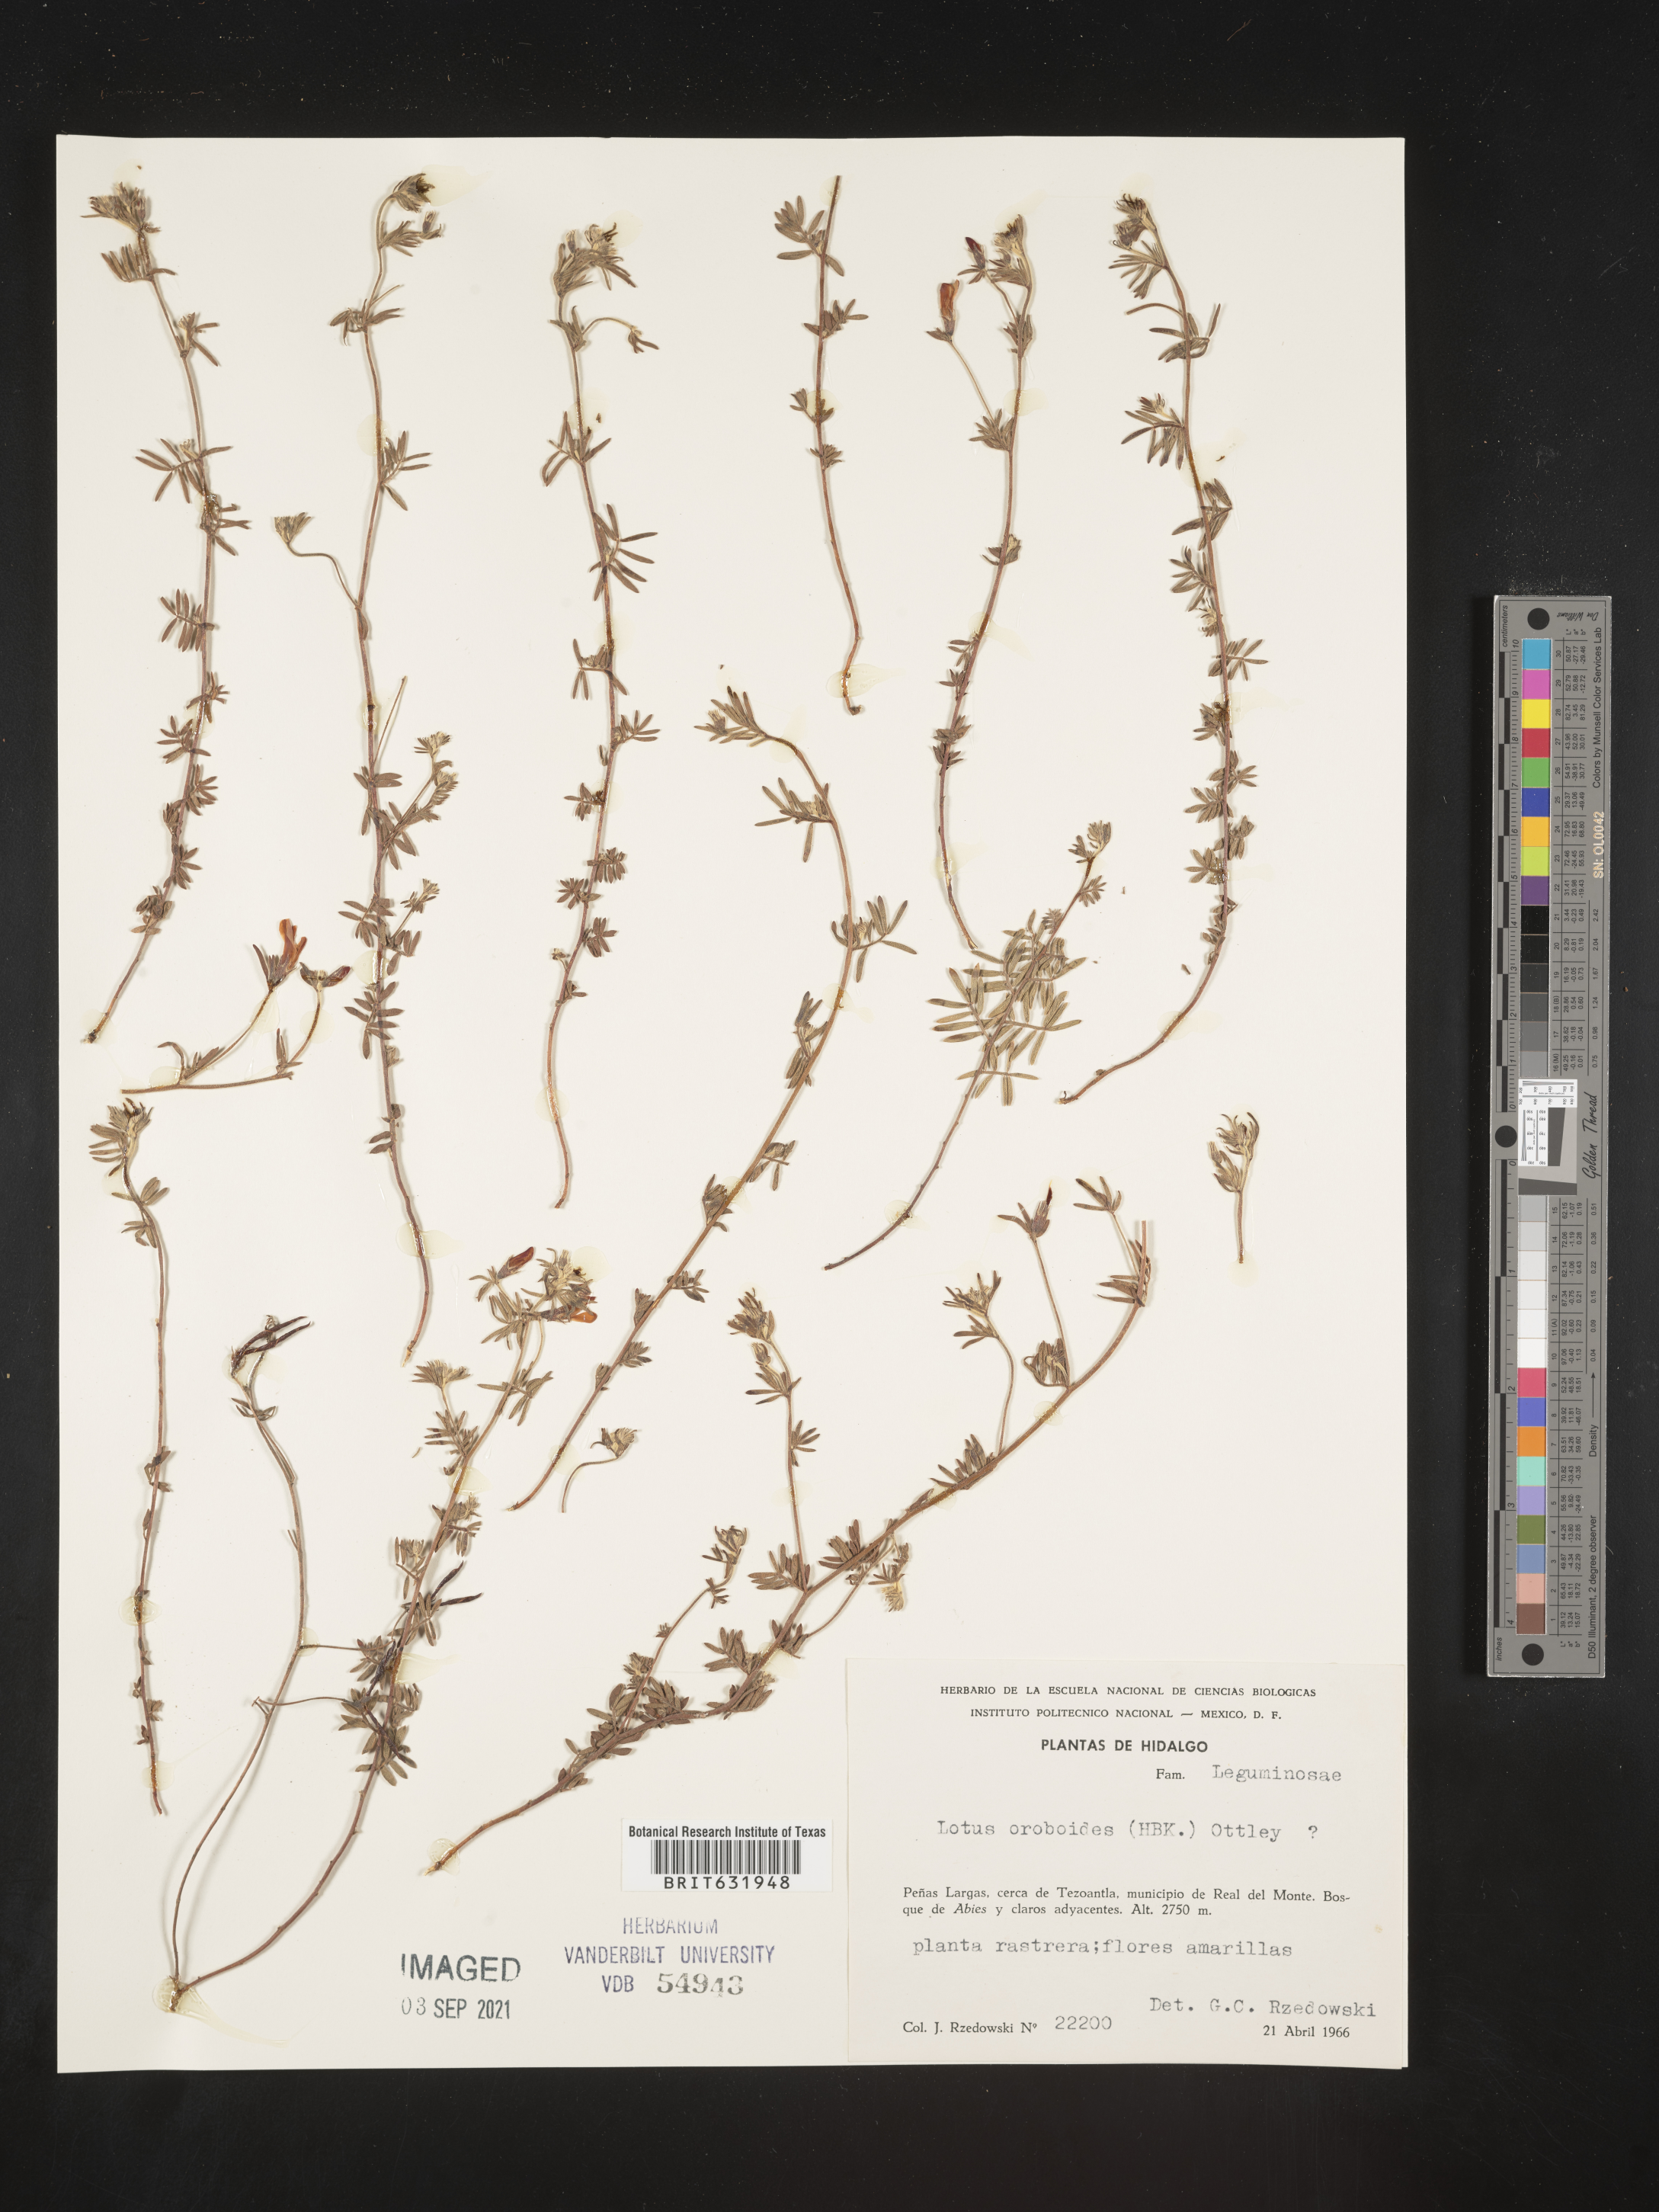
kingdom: Plantae
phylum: Tracheophyta
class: Magnoliopsida
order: Fabales
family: Fabaceae
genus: Lotus
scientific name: Lotus
